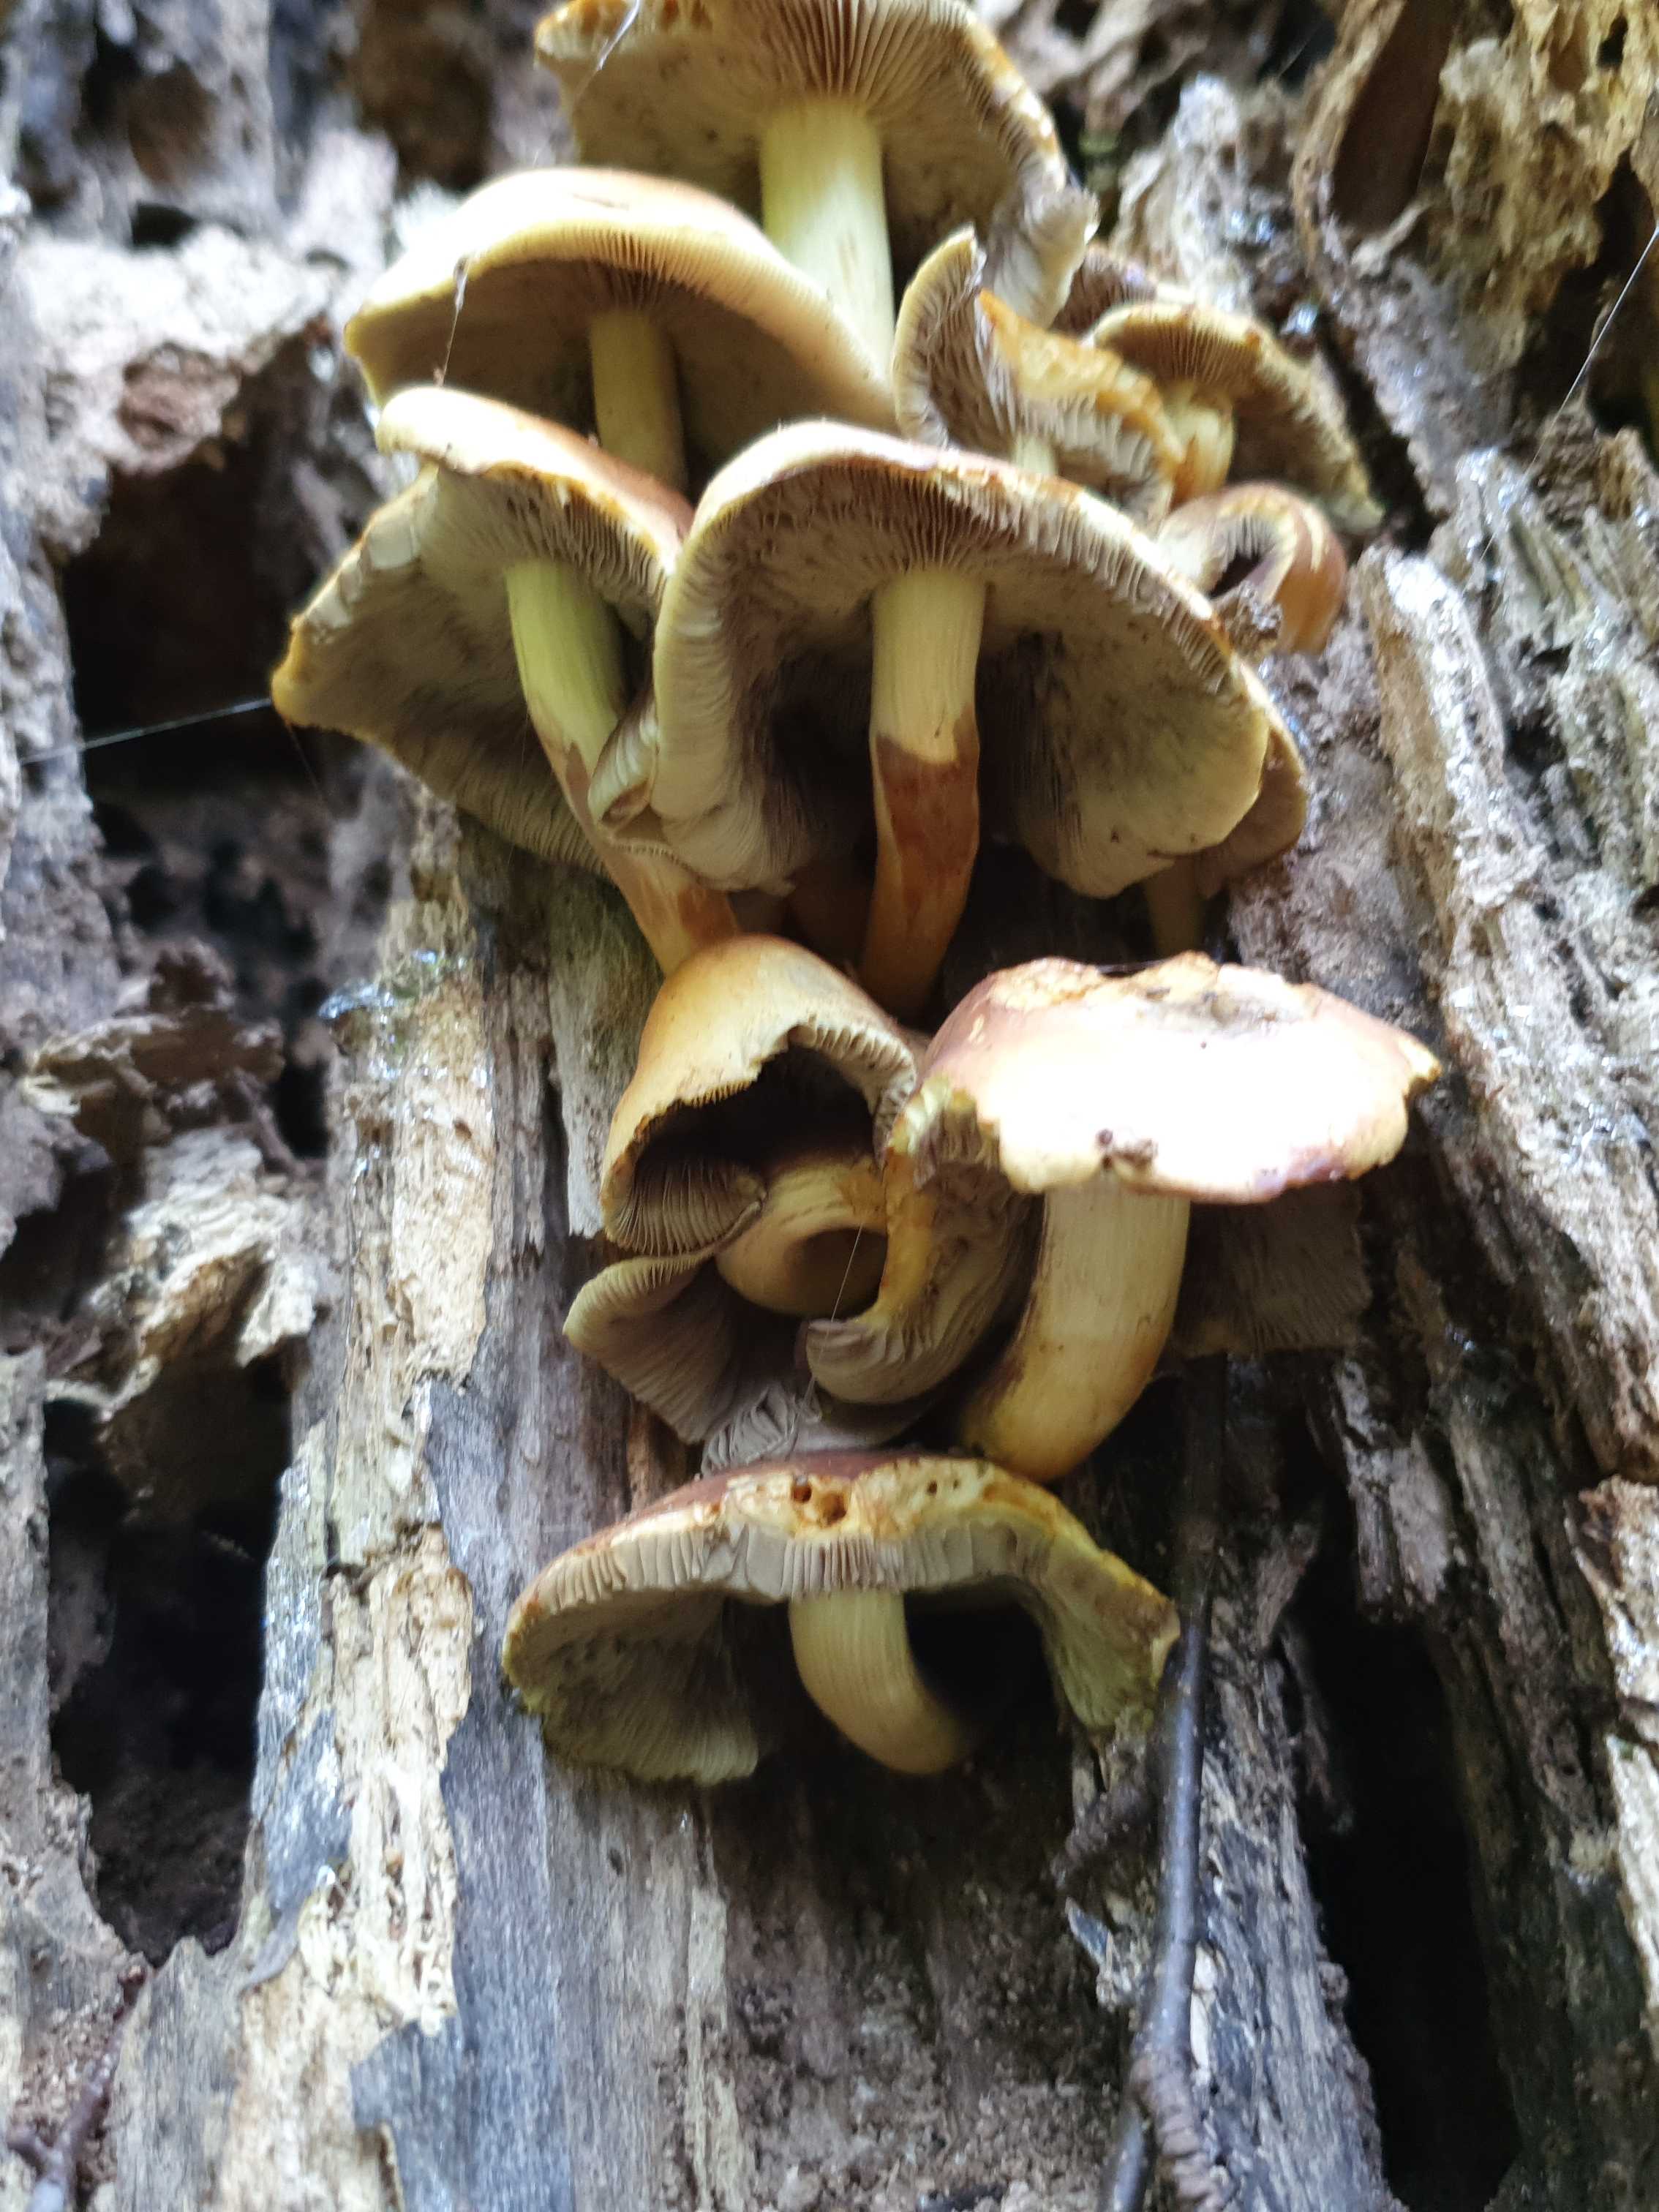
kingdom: Fungi
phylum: Basidiomycota
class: Agaricomycetes
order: Agaricales
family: Strophariaceae
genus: Hypholoma
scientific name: Hypholoma fasciculare
